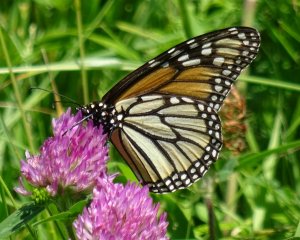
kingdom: Animalia
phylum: Arthropoda
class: Insecta
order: Lepidoptera
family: Nymphalidae
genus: Danaus
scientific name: Danaus plexippus
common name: Monarch
